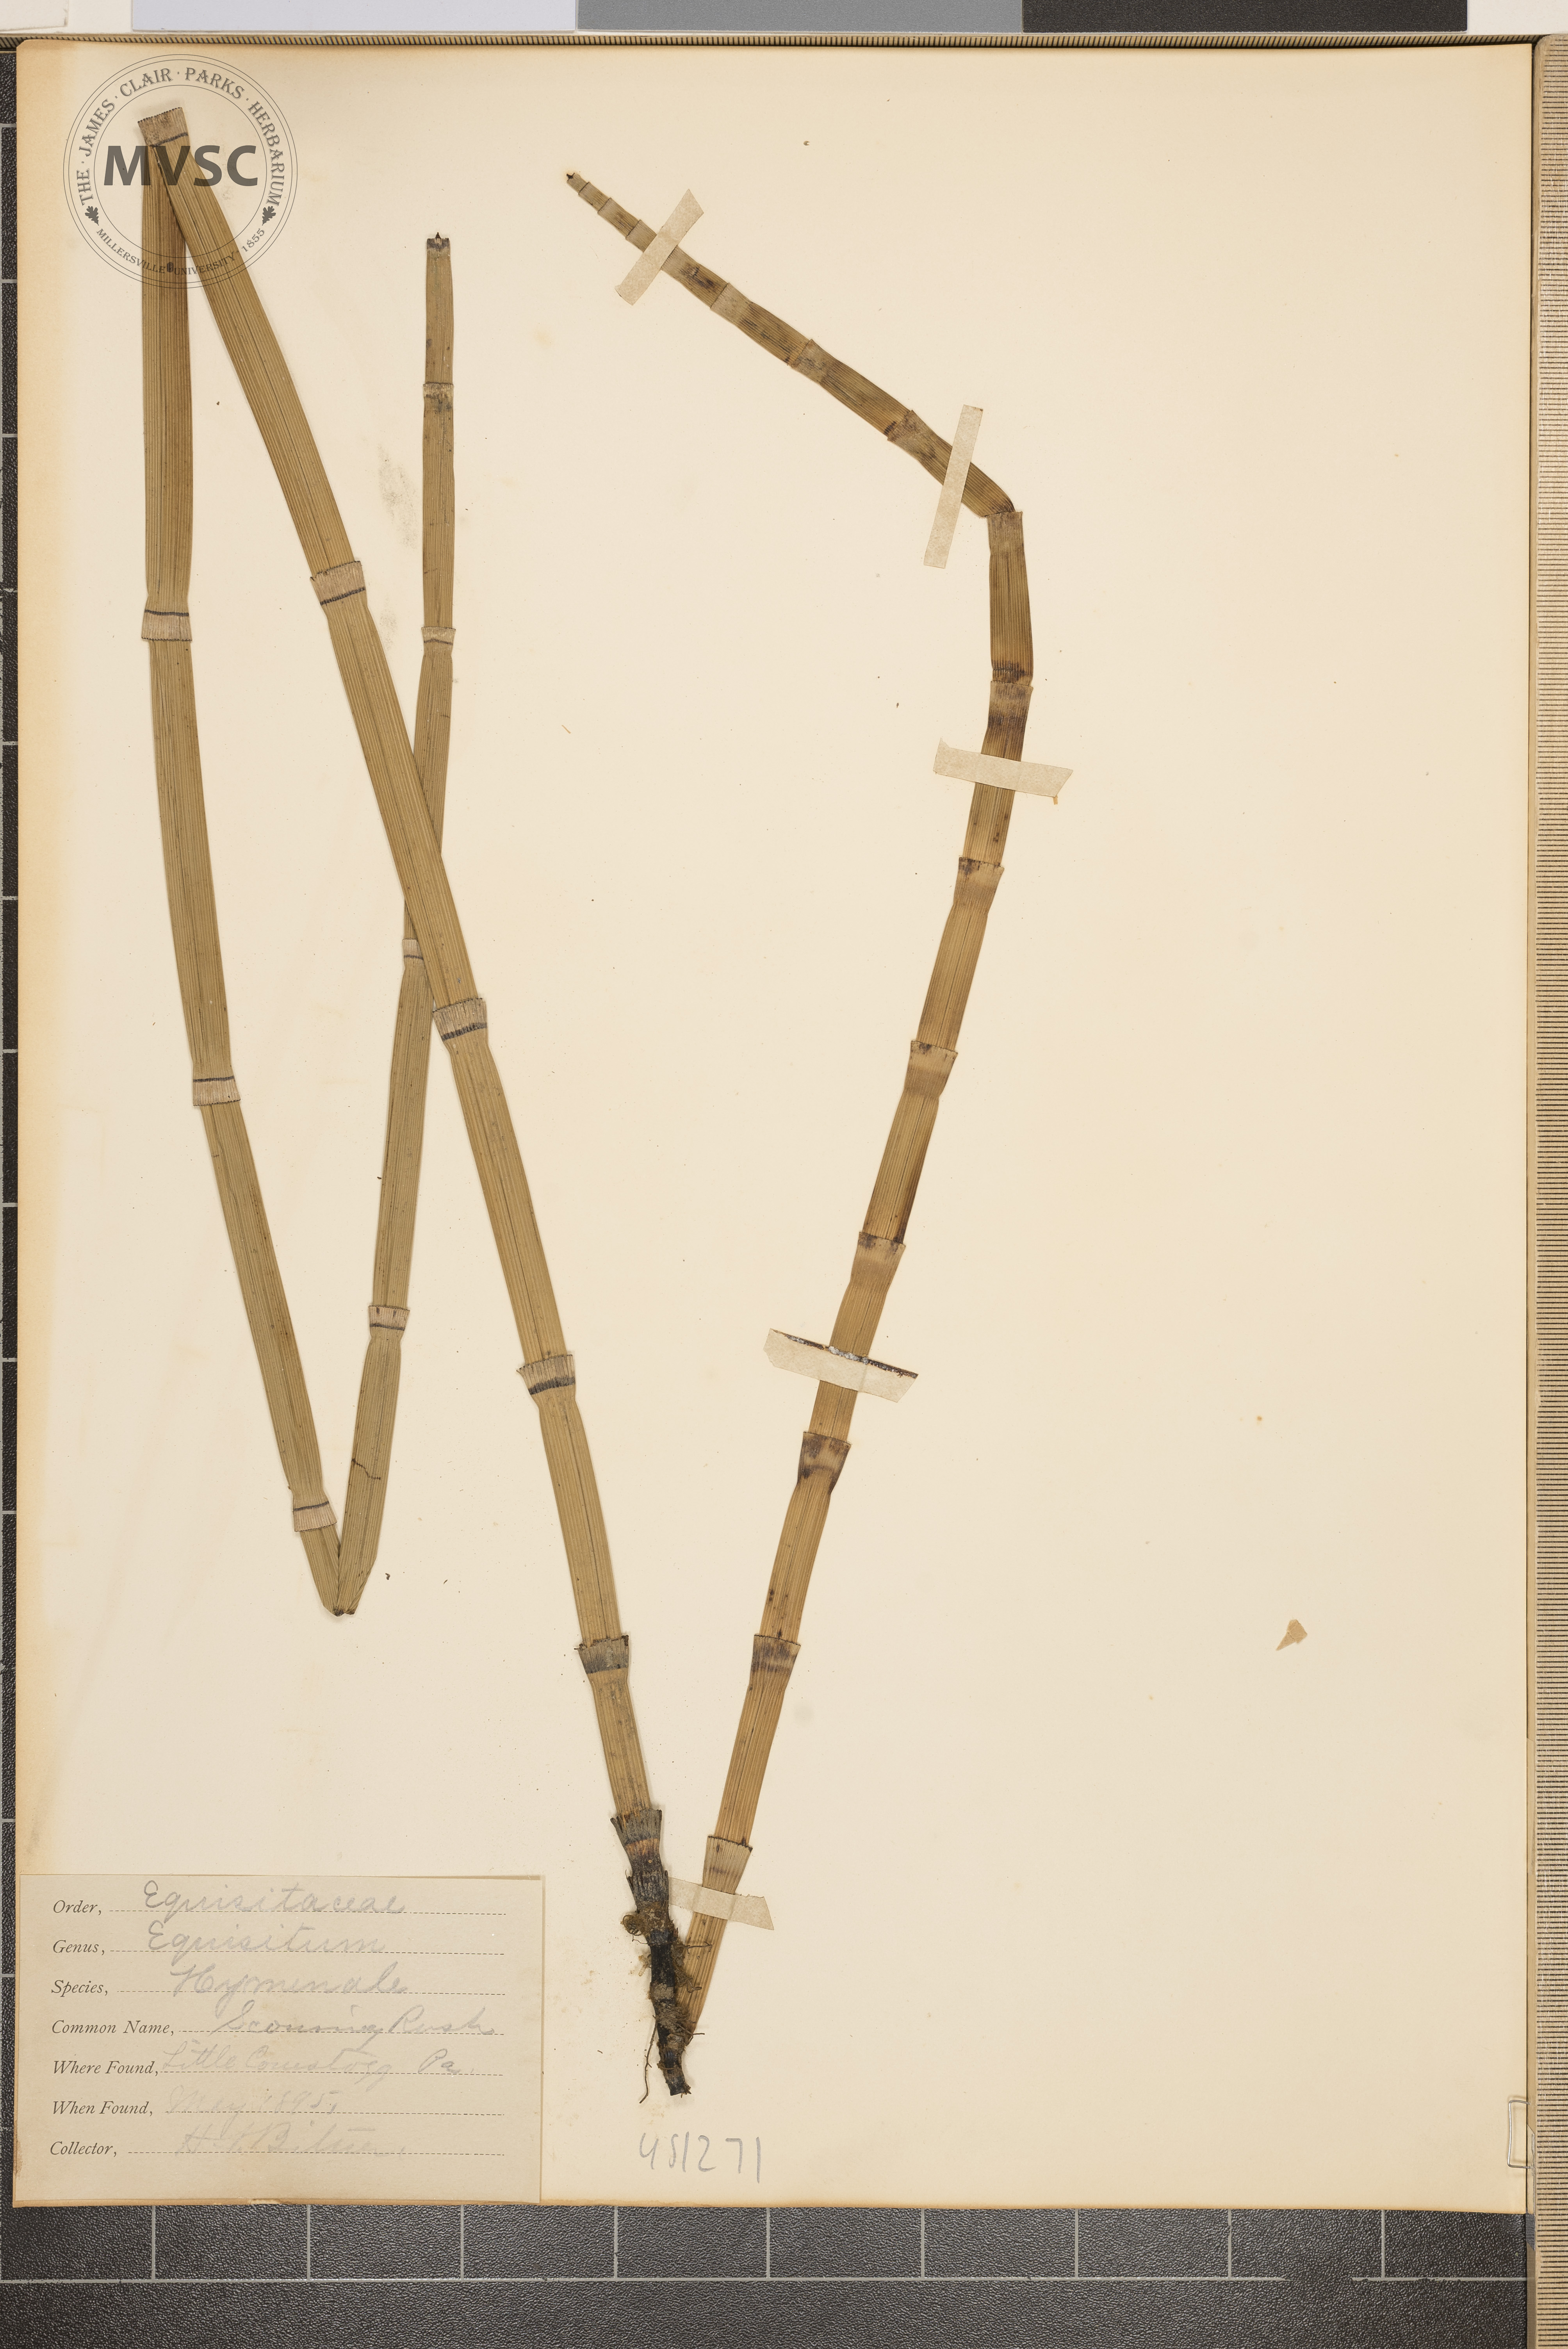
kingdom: Plantae
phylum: Tracheophyta
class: Polypodiopsida
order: Equisetales
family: Equisetaceae
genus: Equisetum
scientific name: Equisetum hyemale
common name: Scouring rush
